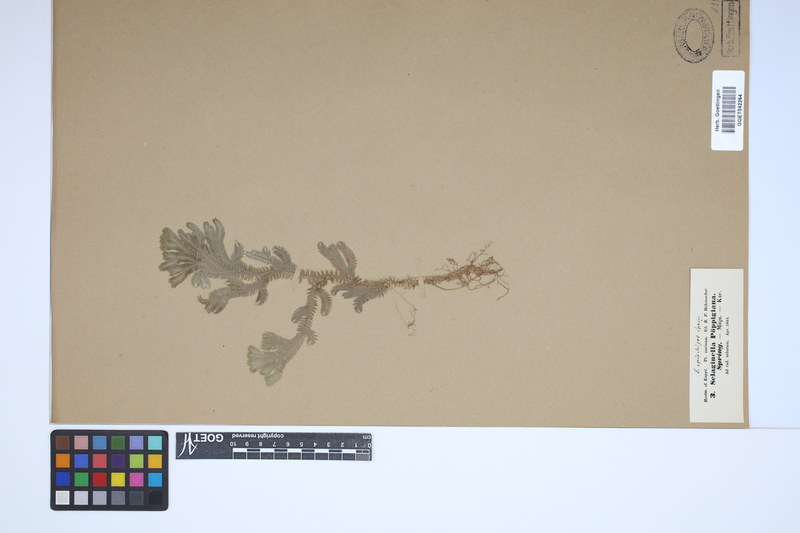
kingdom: Plantae
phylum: Tracheophyta
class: Lycopodiopsida
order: Selaginellales
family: Selaginellaceae
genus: Selaginella
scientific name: Selaginella epirrhizos
